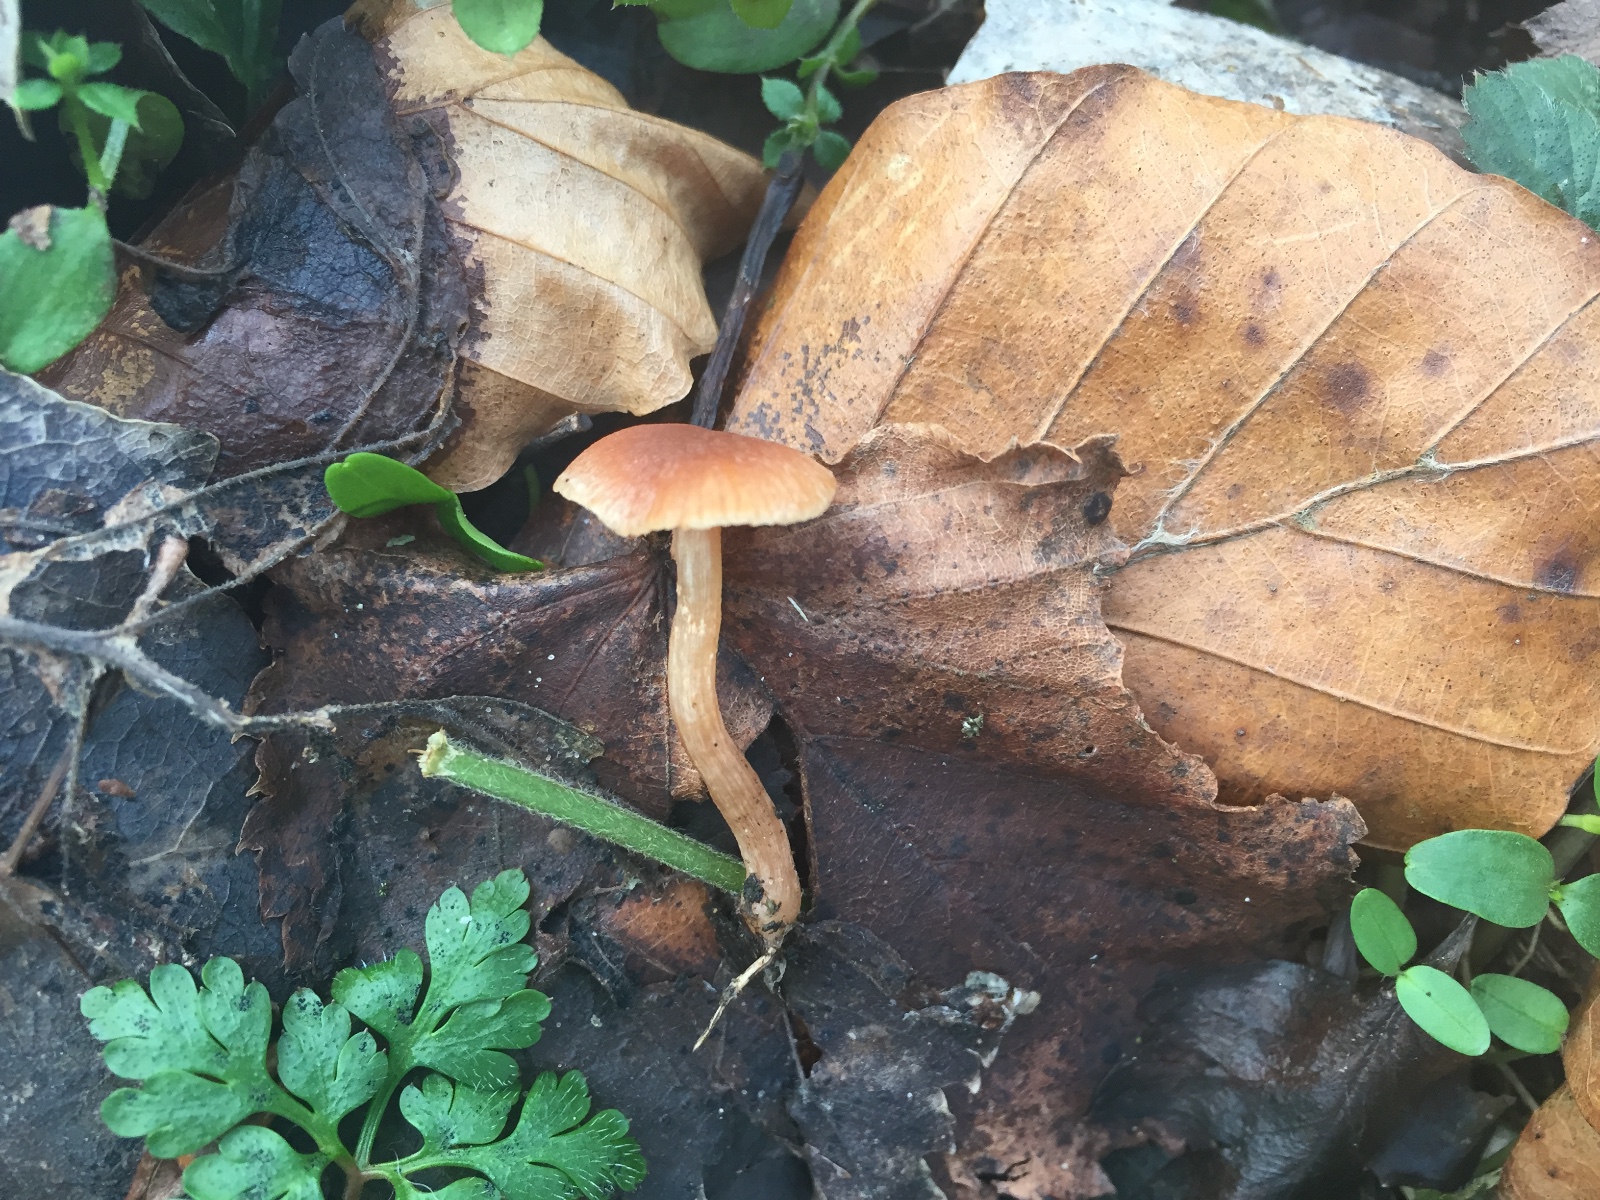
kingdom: Fungi
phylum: Basidiomycota
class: Agaricomycetes
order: Agaricales
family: Tubariaceae
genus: Tubaria
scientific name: Tubaria furfuracea
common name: kliddet fnughat
